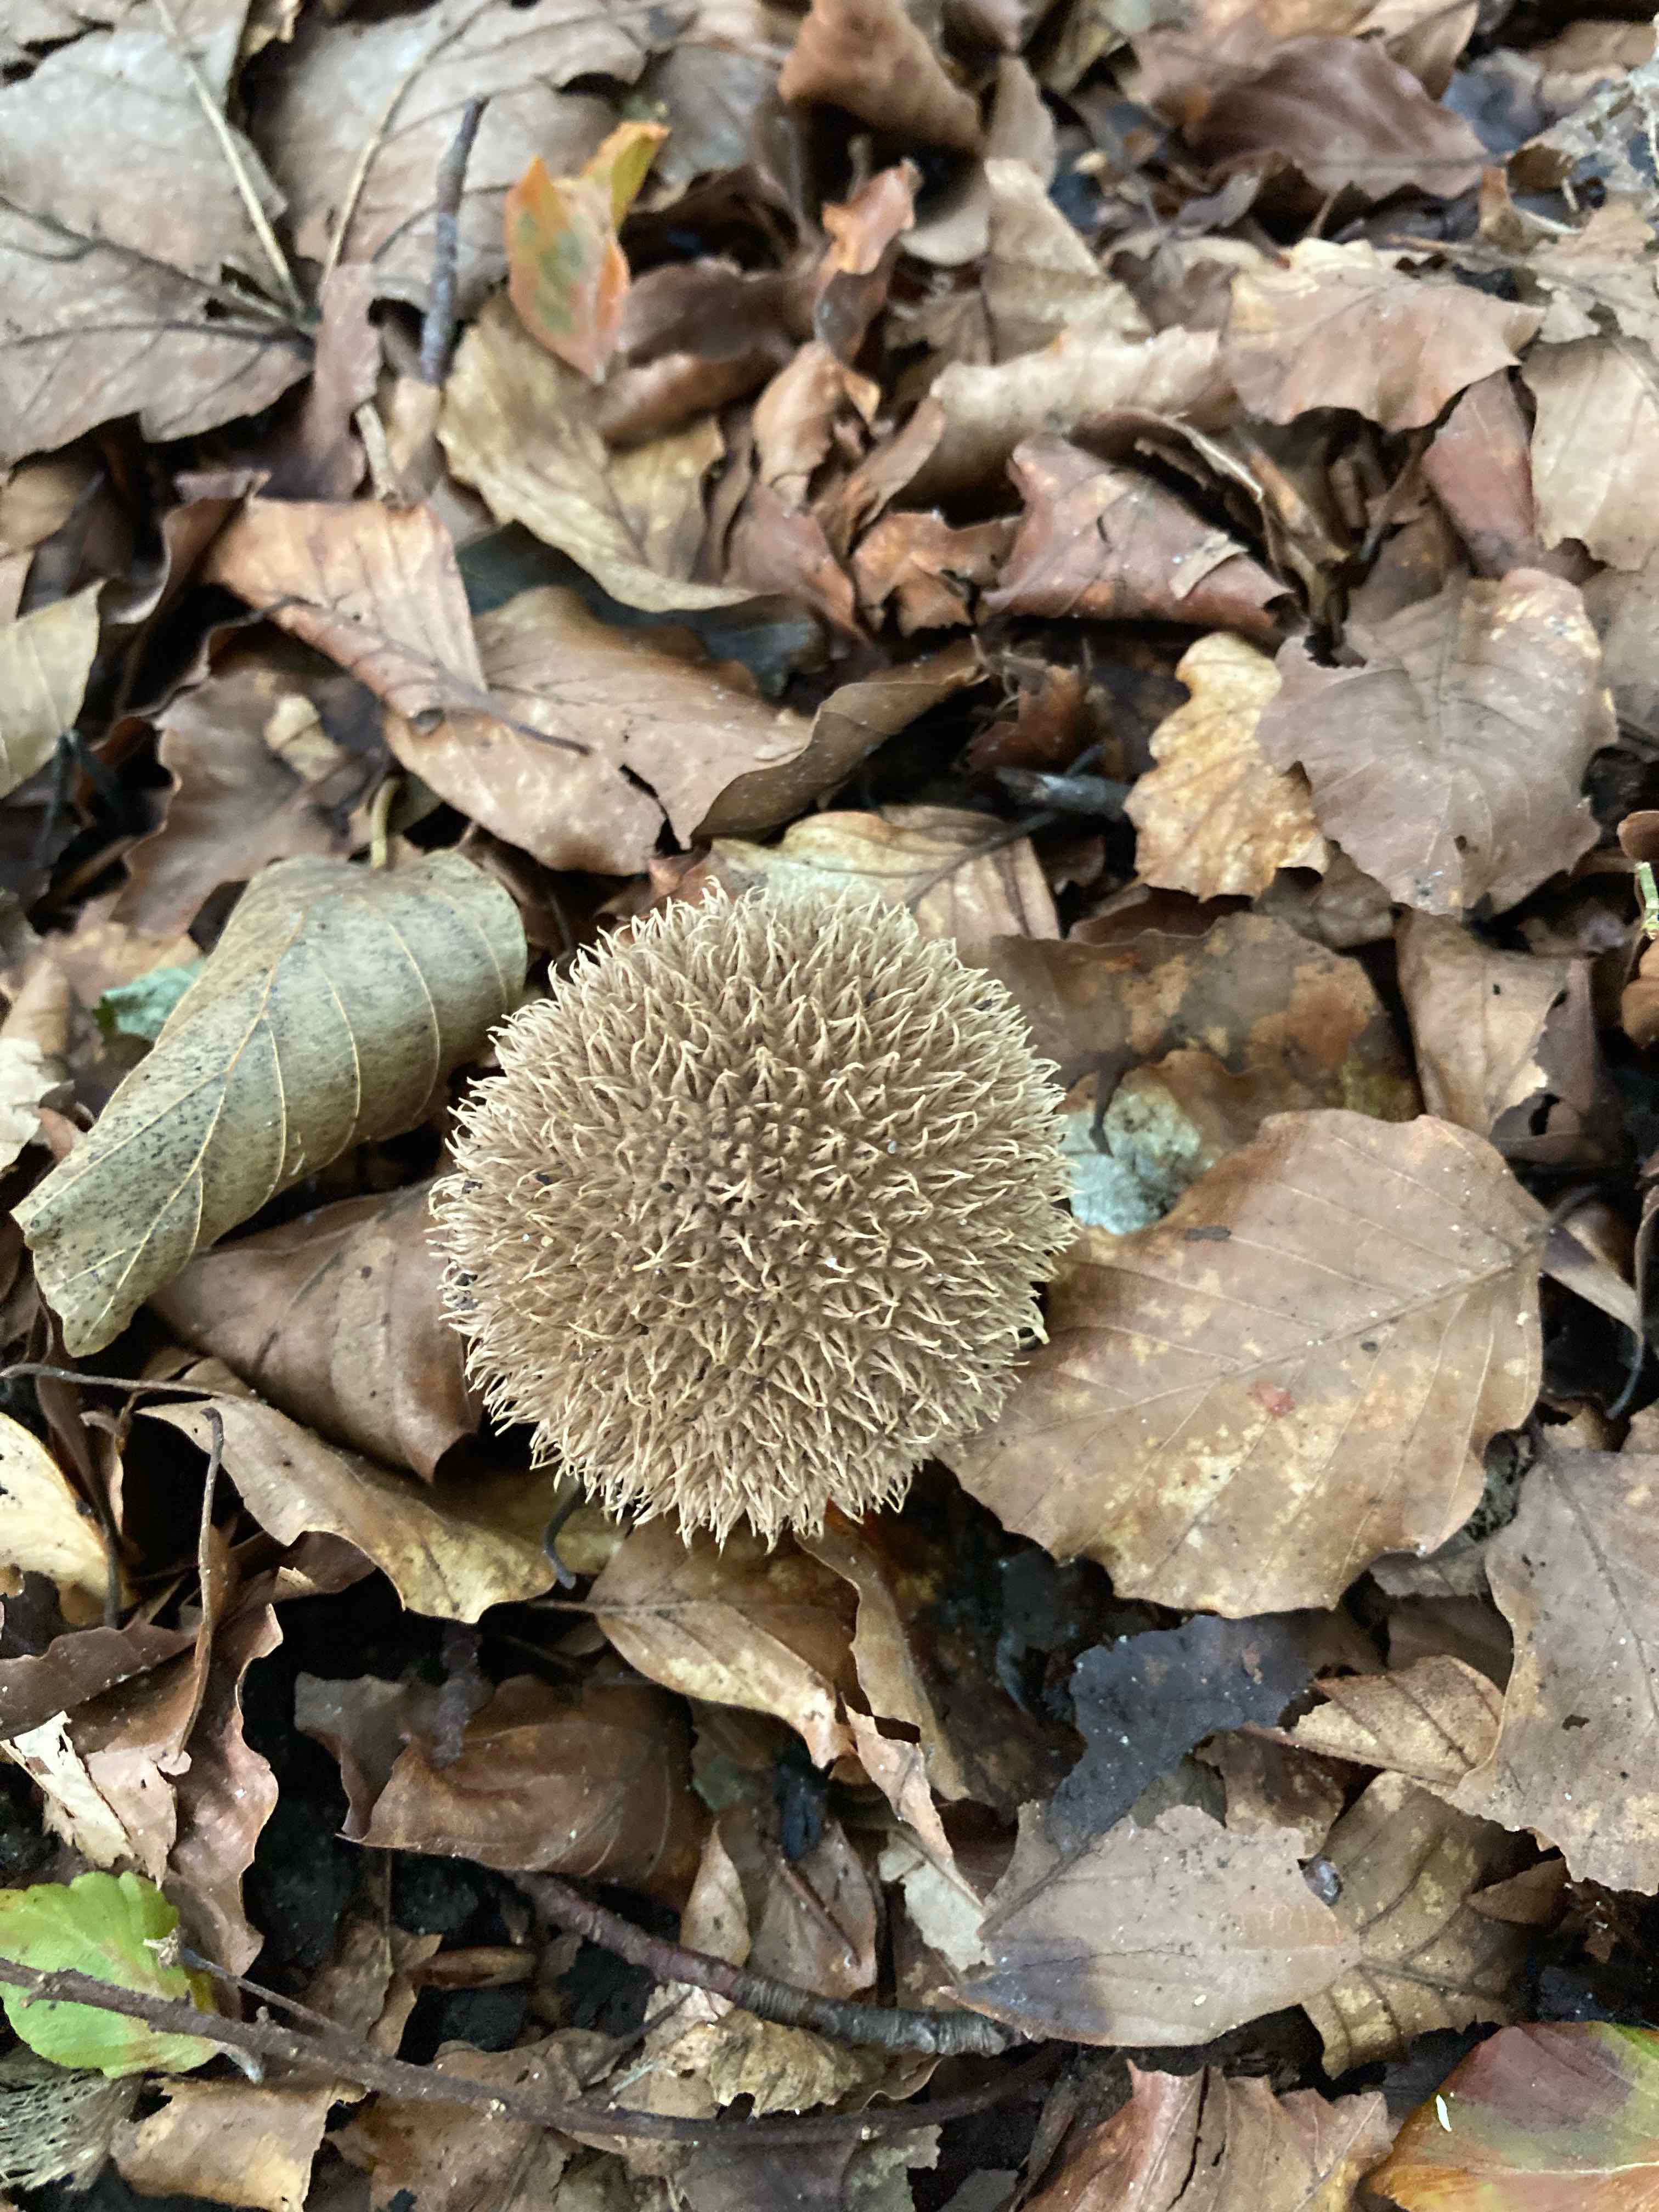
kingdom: Fungi
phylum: Basidiomycota
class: Agaricomycetes
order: Agaricales
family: Lycoperdaceae
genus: Lycoperdon
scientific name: Lycoperdon echinatum
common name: pindsvine-støvbold
